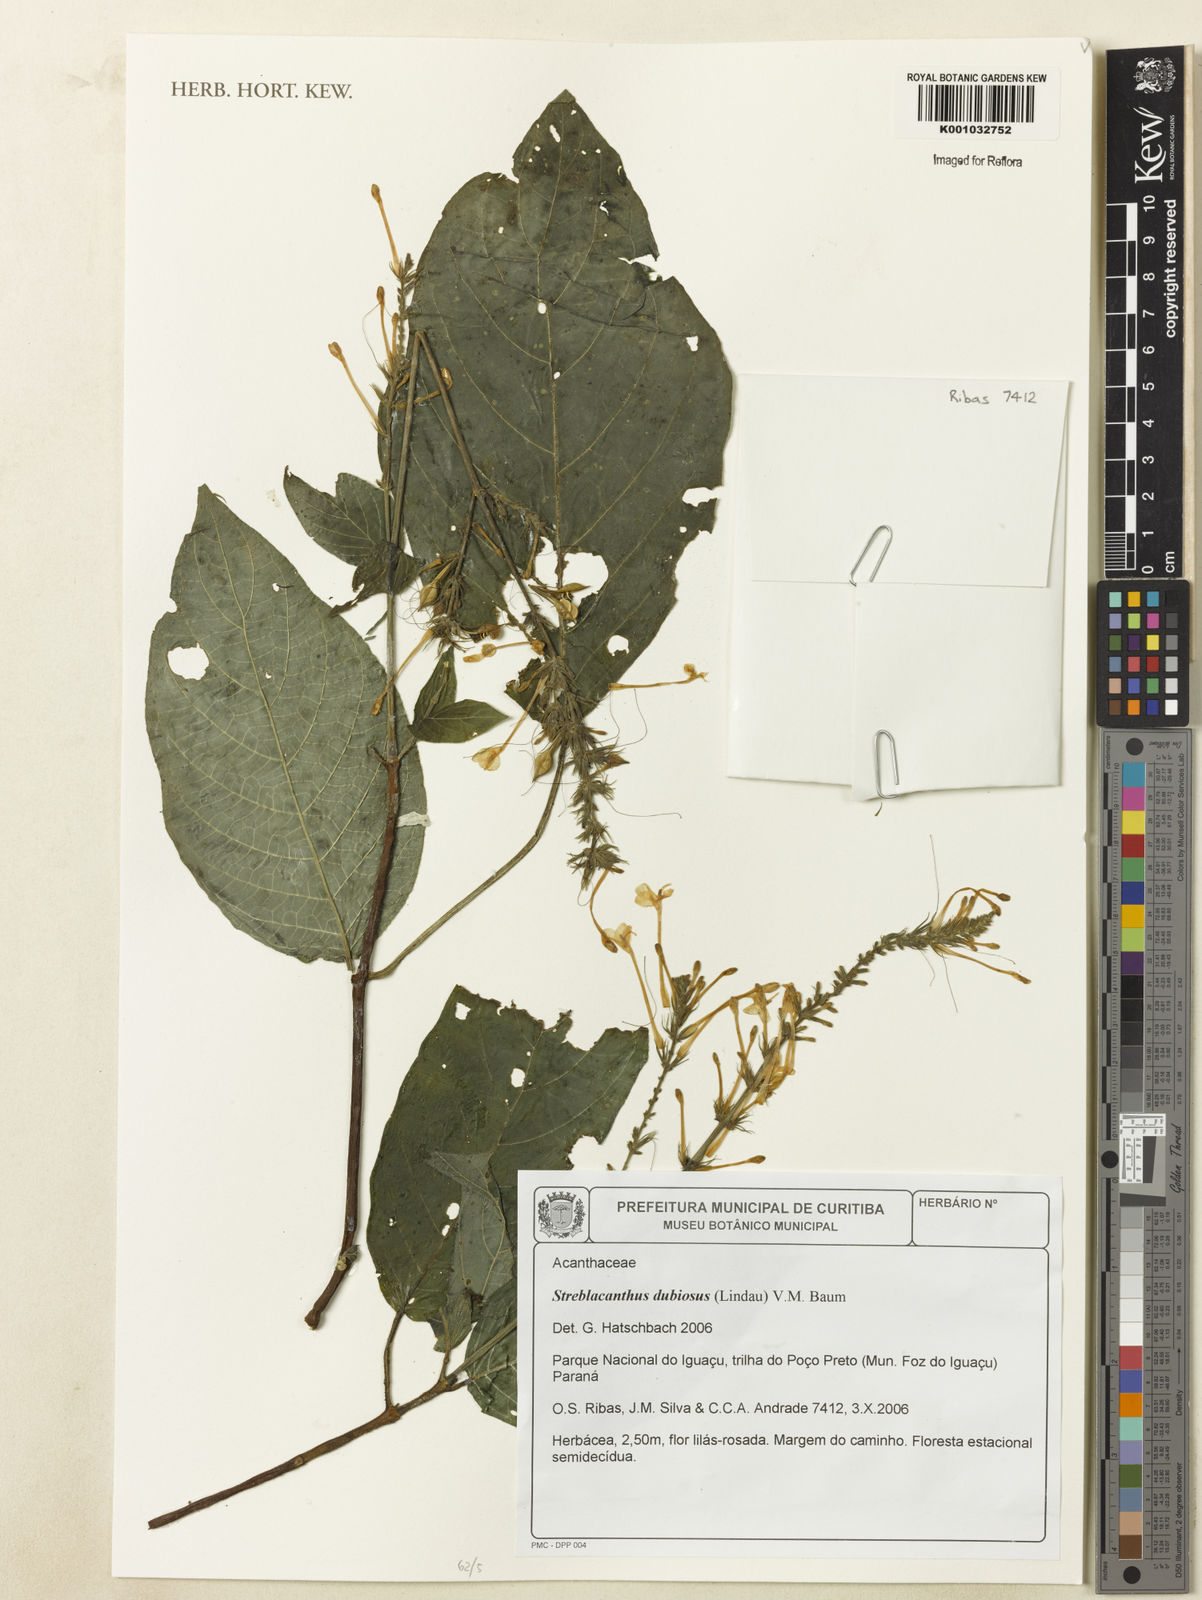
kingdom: Plantae
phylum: Tracheophyta
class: Magnoliopsida
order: Lamiales
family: Acanthaceae
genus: Pachystachys
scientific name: Pachystachys dubiosa
